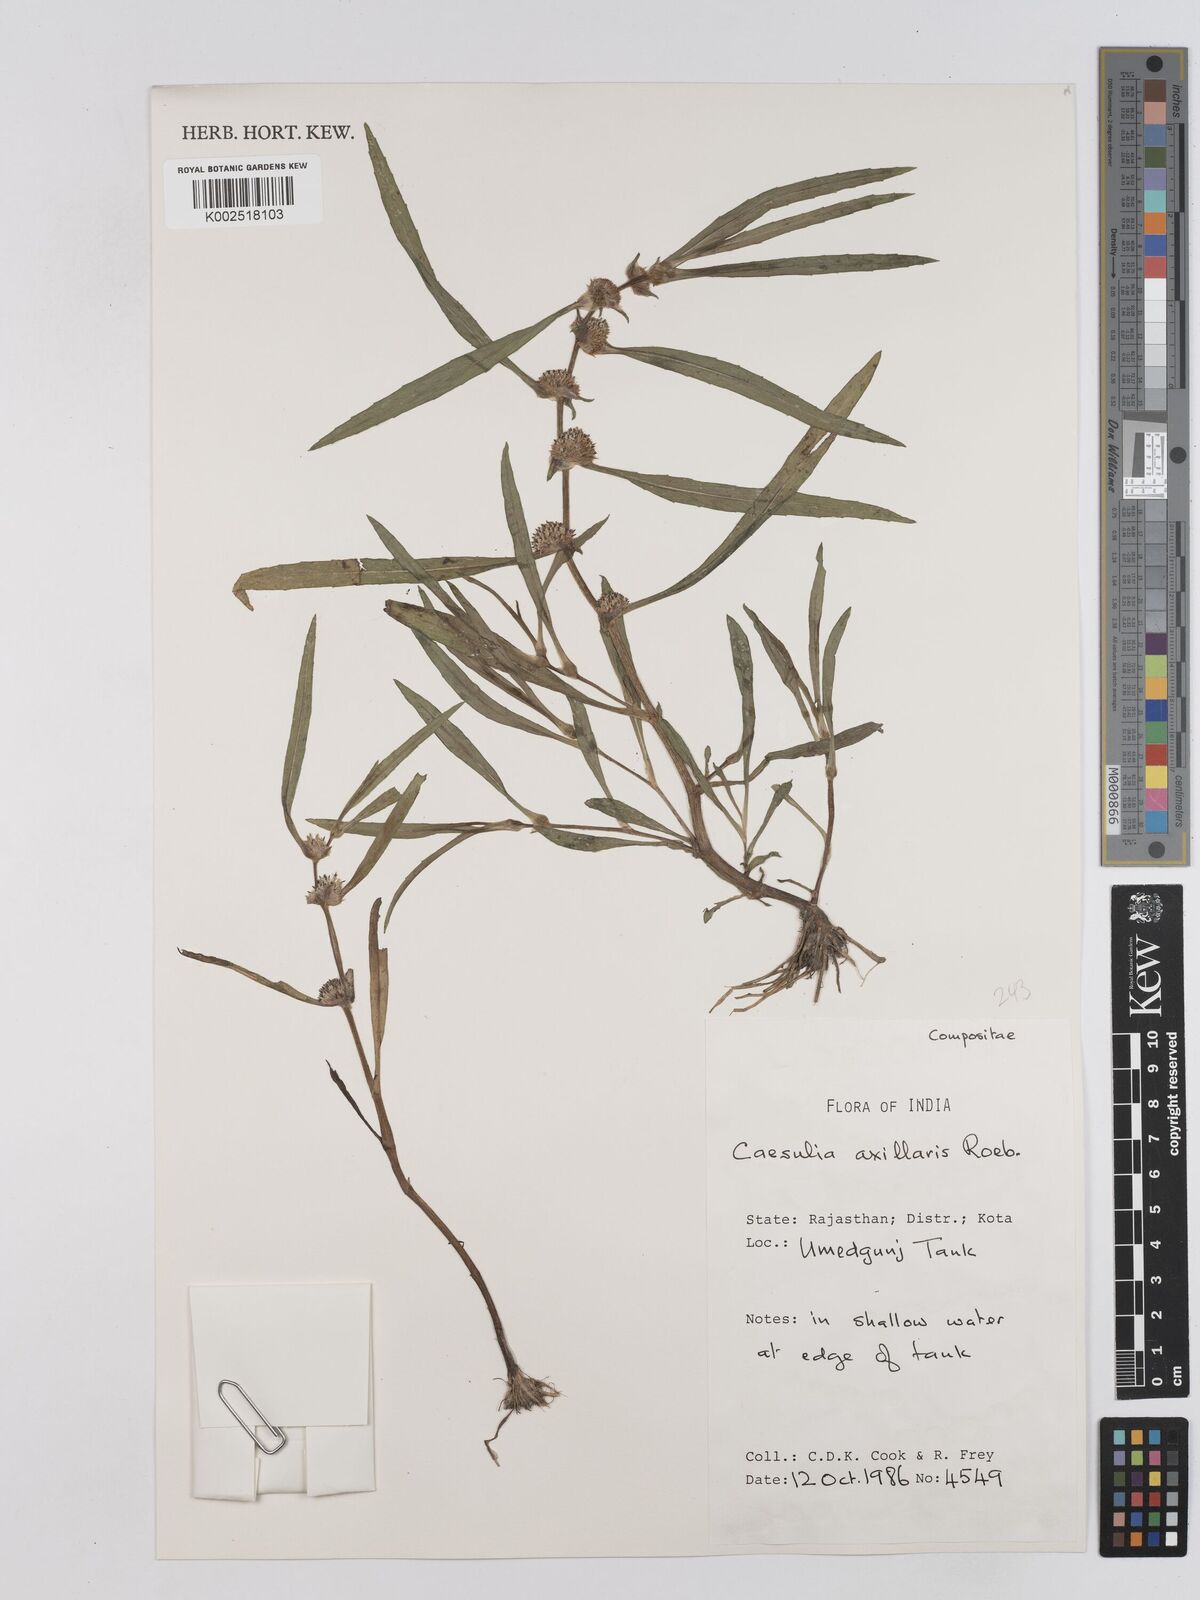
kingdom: Plantae
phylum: Tracheophyta
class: Magnoliopsida
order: Asterales
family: Asteraceae
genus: Caesulia
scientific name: Caesulia axillaris
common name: Pink node flower
